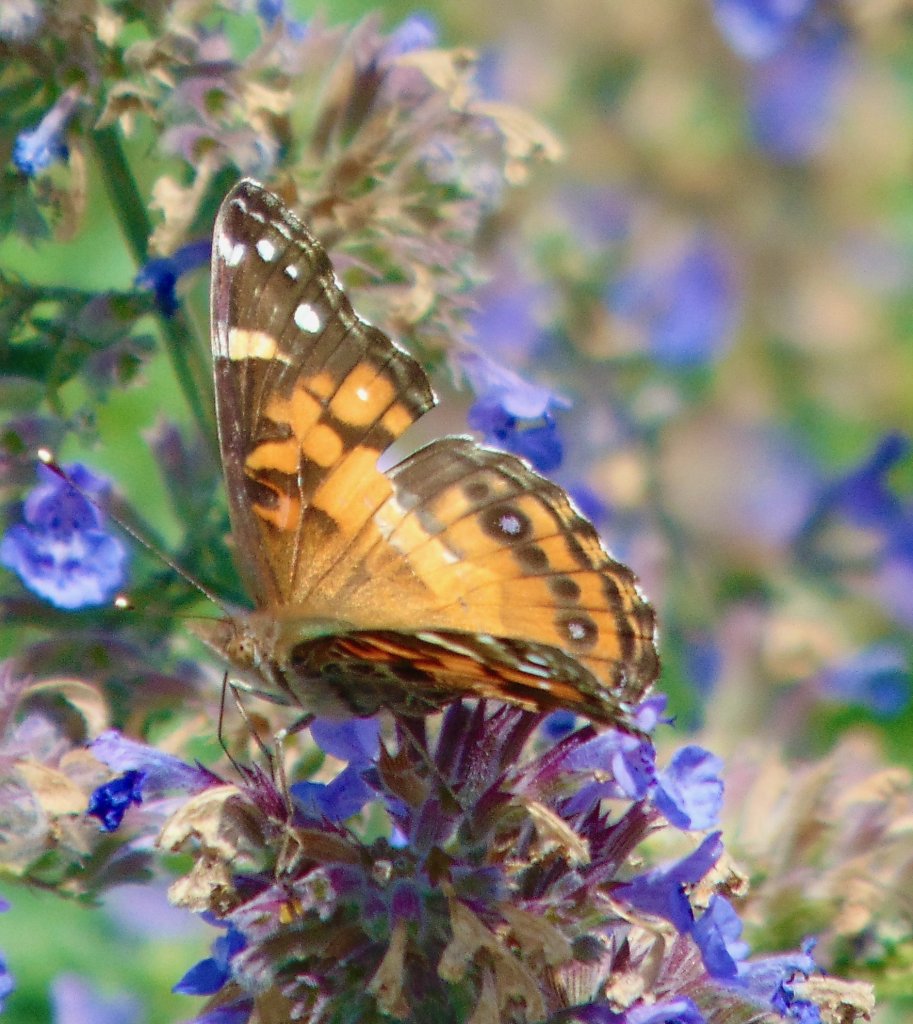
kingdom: Animalia
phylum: Arthropoda
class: Insecta
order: Lepidoptera
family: Nymphalidae
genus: Vanessa
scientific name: Vanessa virginiensis
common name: American Lady
